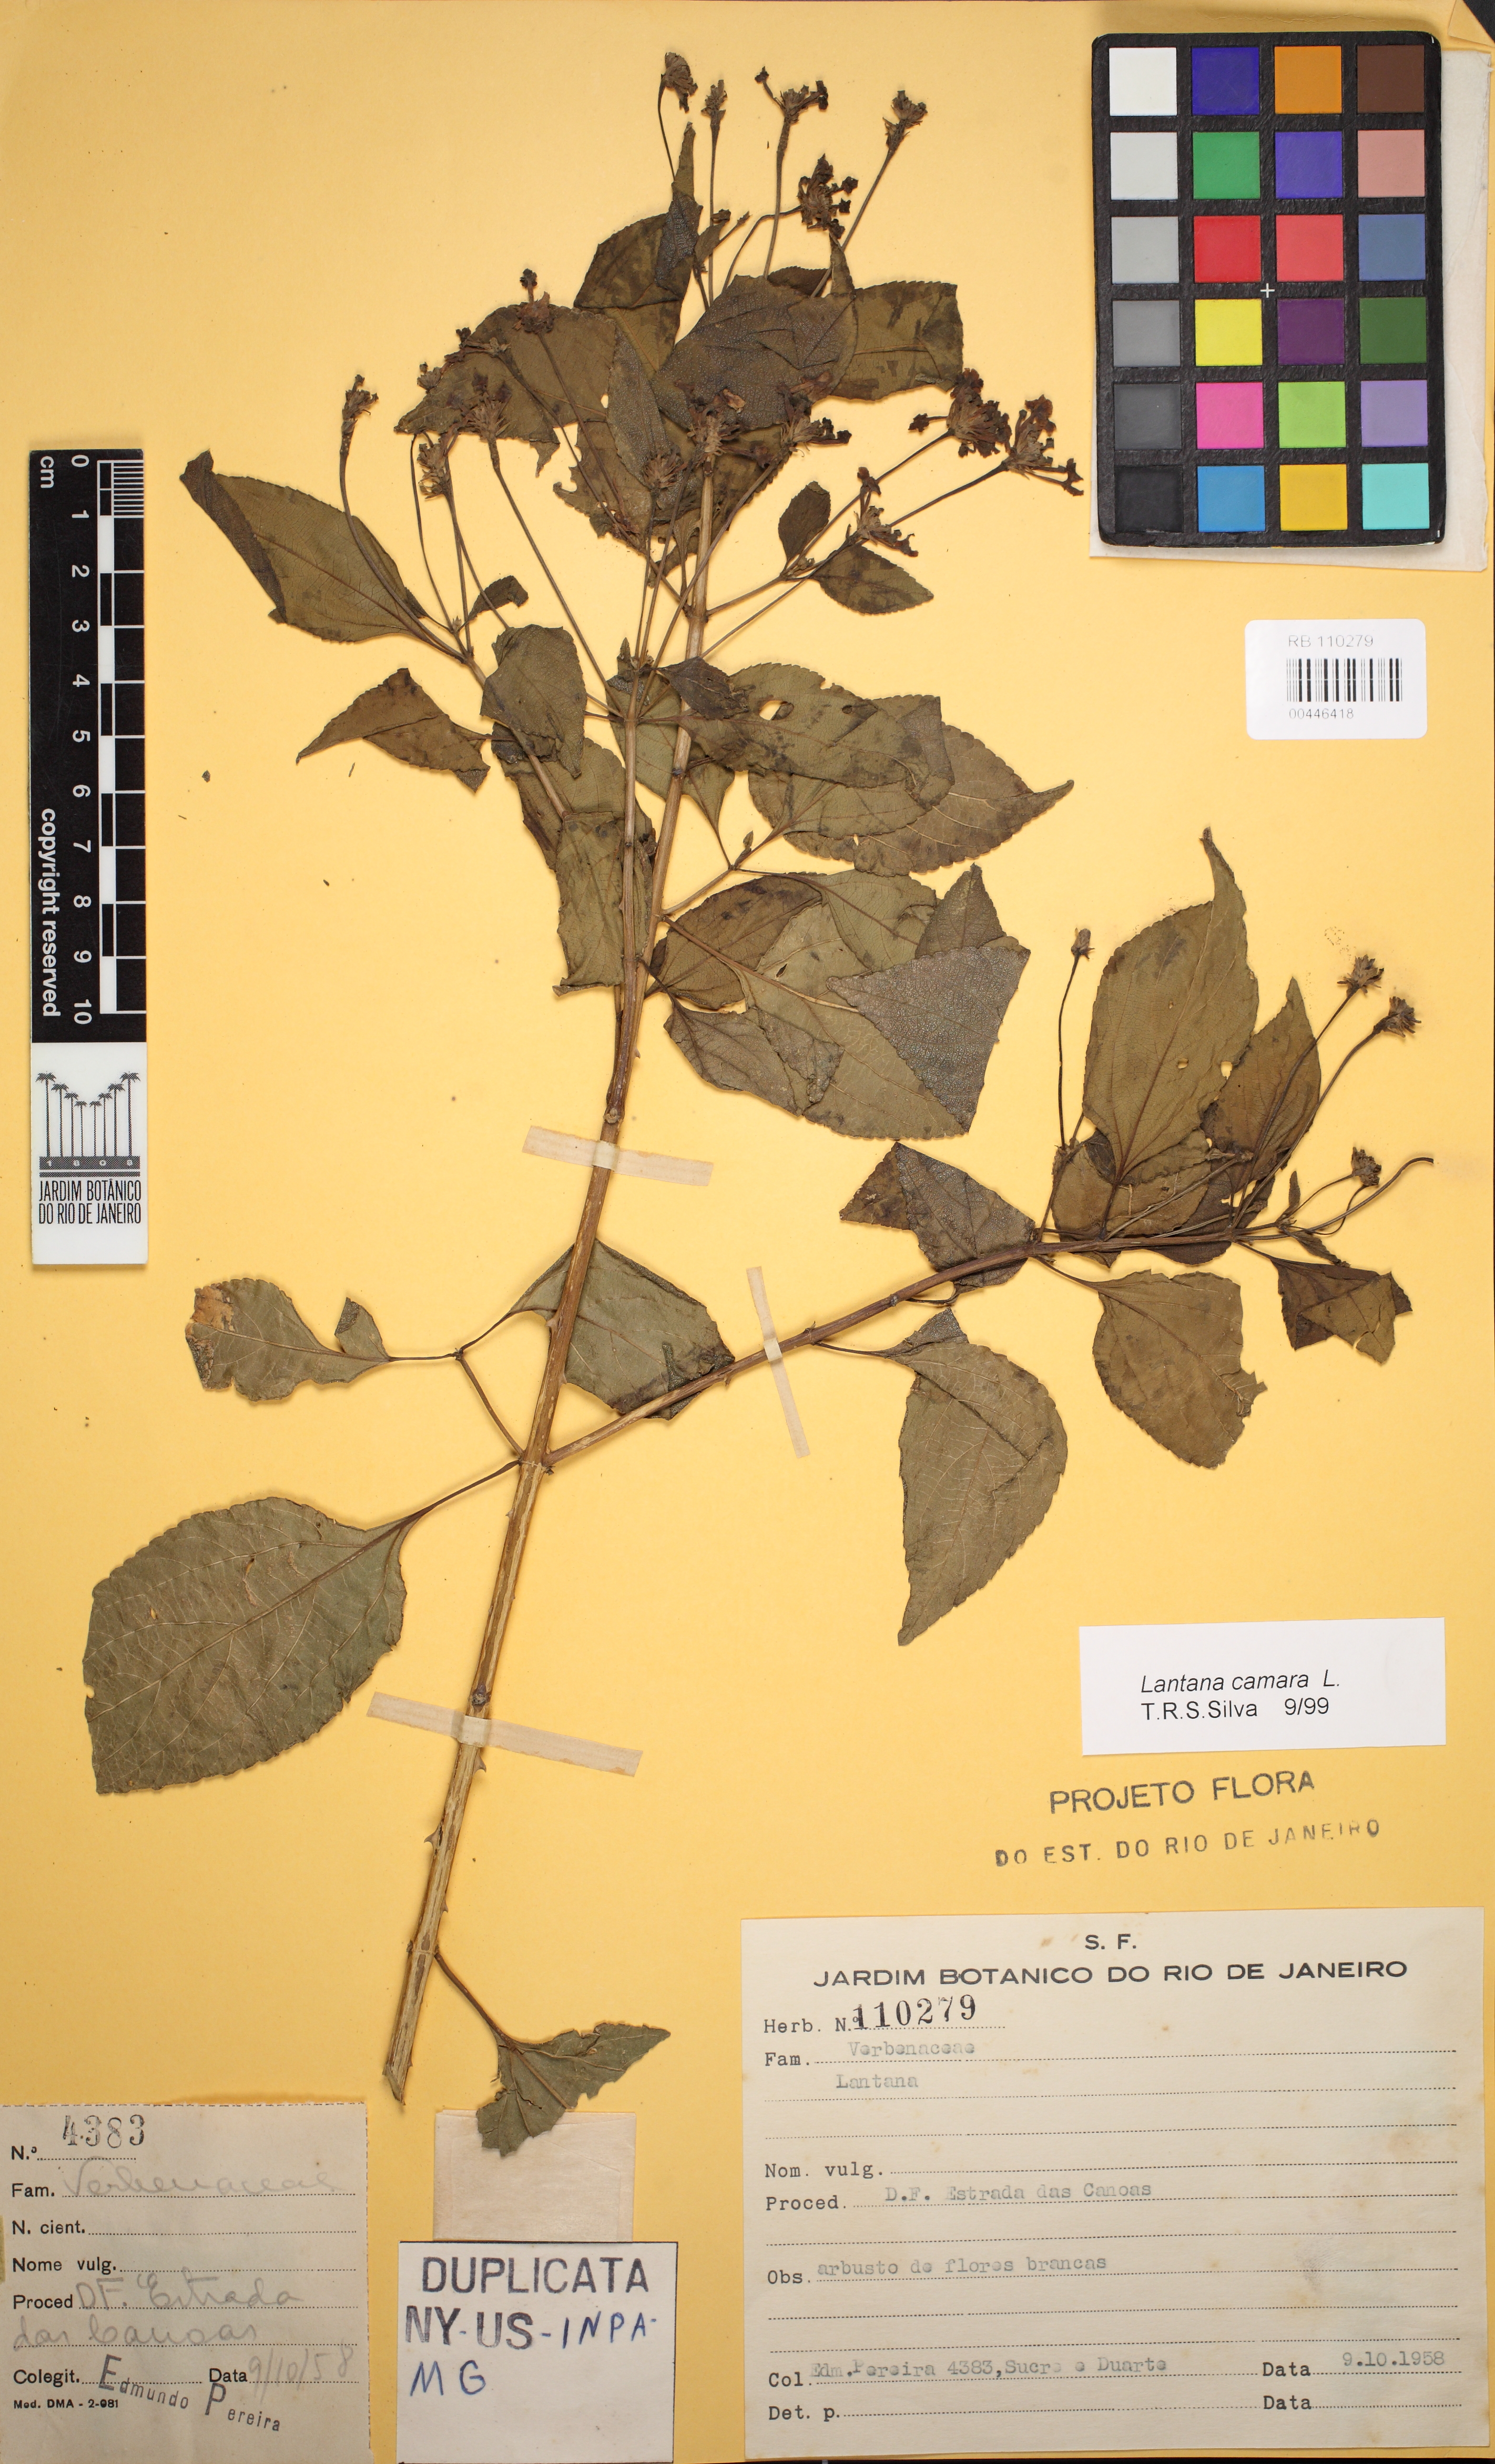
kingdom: Plantae
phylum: Tracheophyta
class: Magnoliopsida
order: Lamiales
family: Verbenaceae
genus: Lantana
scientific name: Lantana camara
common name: Lantana
